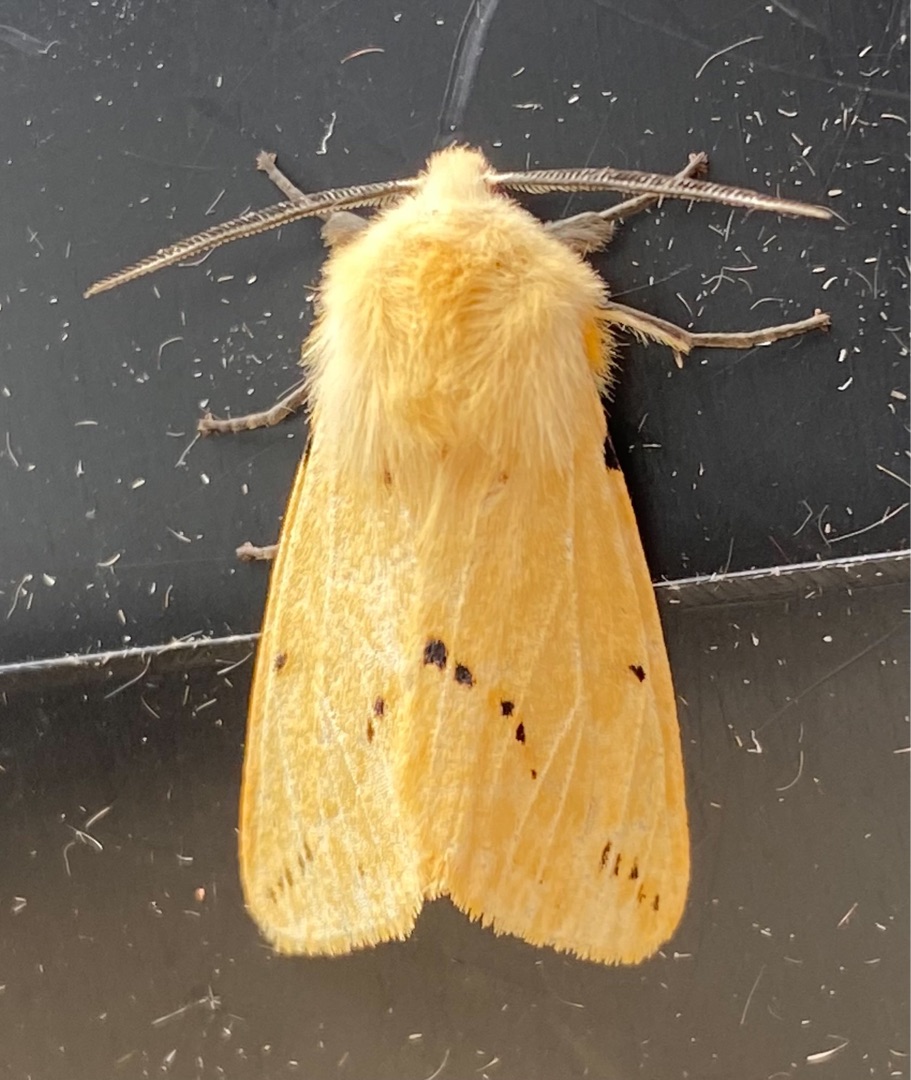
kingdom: Animalia
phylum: Arthropoda
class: Insecta
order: Lepidoptera
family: Erebidae
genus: Spilarctia
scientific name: Spilarctia lutea
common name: Gul tigerspinder
